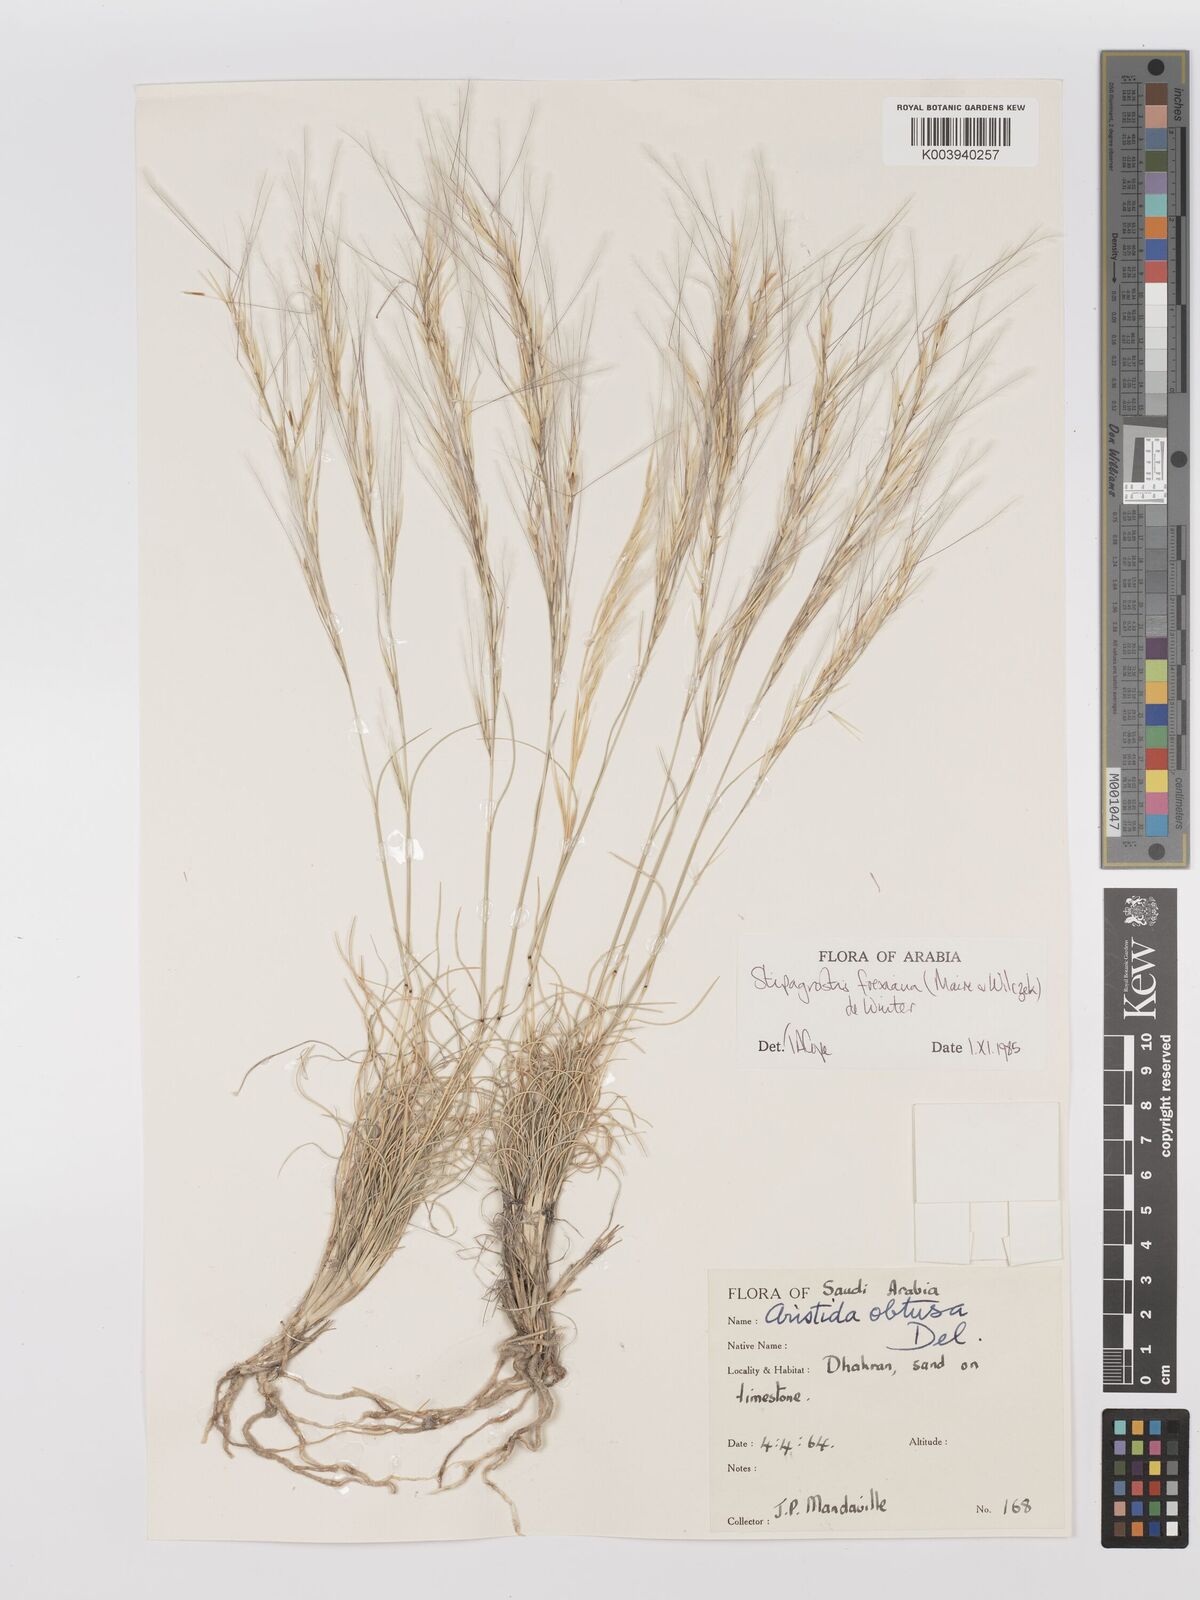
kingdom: Plantae
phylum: Tracheophyta
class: Liliopsida
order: Poales
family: Poaceae
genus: Stipagrostis
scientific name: Stipagrostis foexiana
